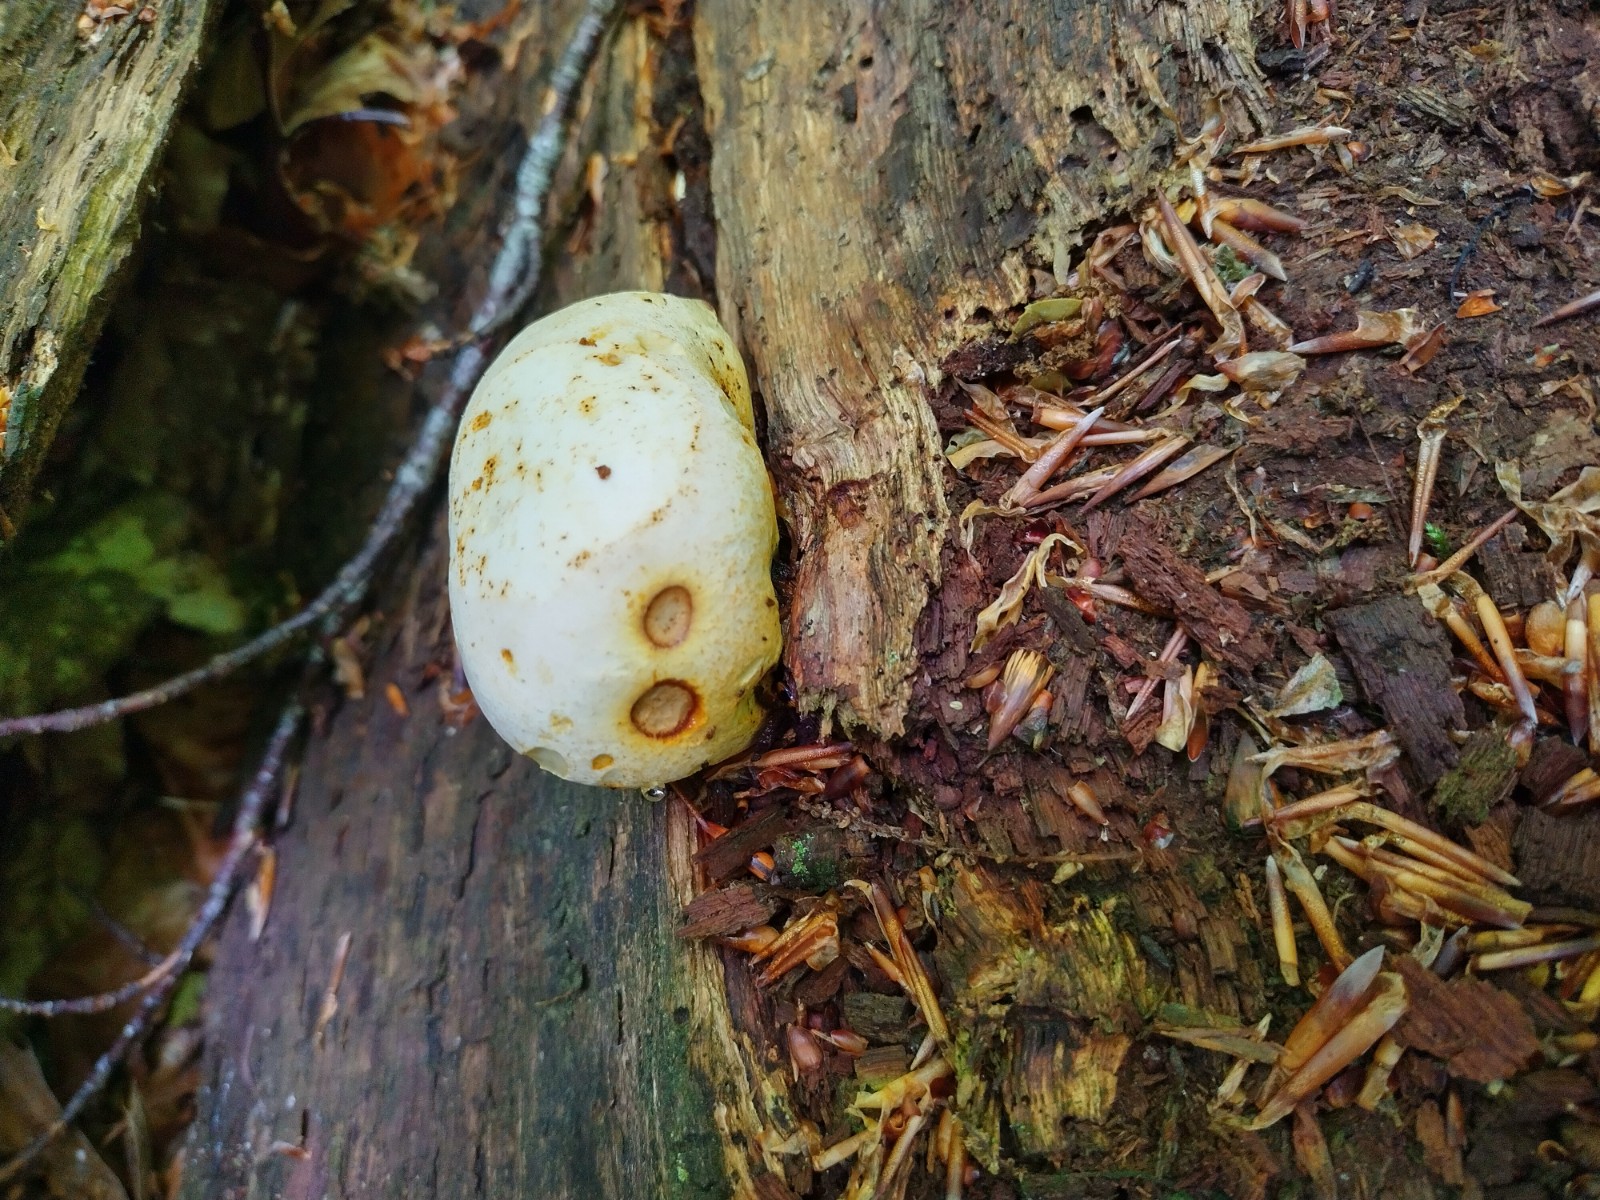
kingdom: Fungi
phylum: Basidiomycota
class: Agaricomycetes
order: Polyporales
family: Fomitopsidaceae
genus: Buglossoporus
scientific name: Buglossoporus quercinus
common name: egetunge
